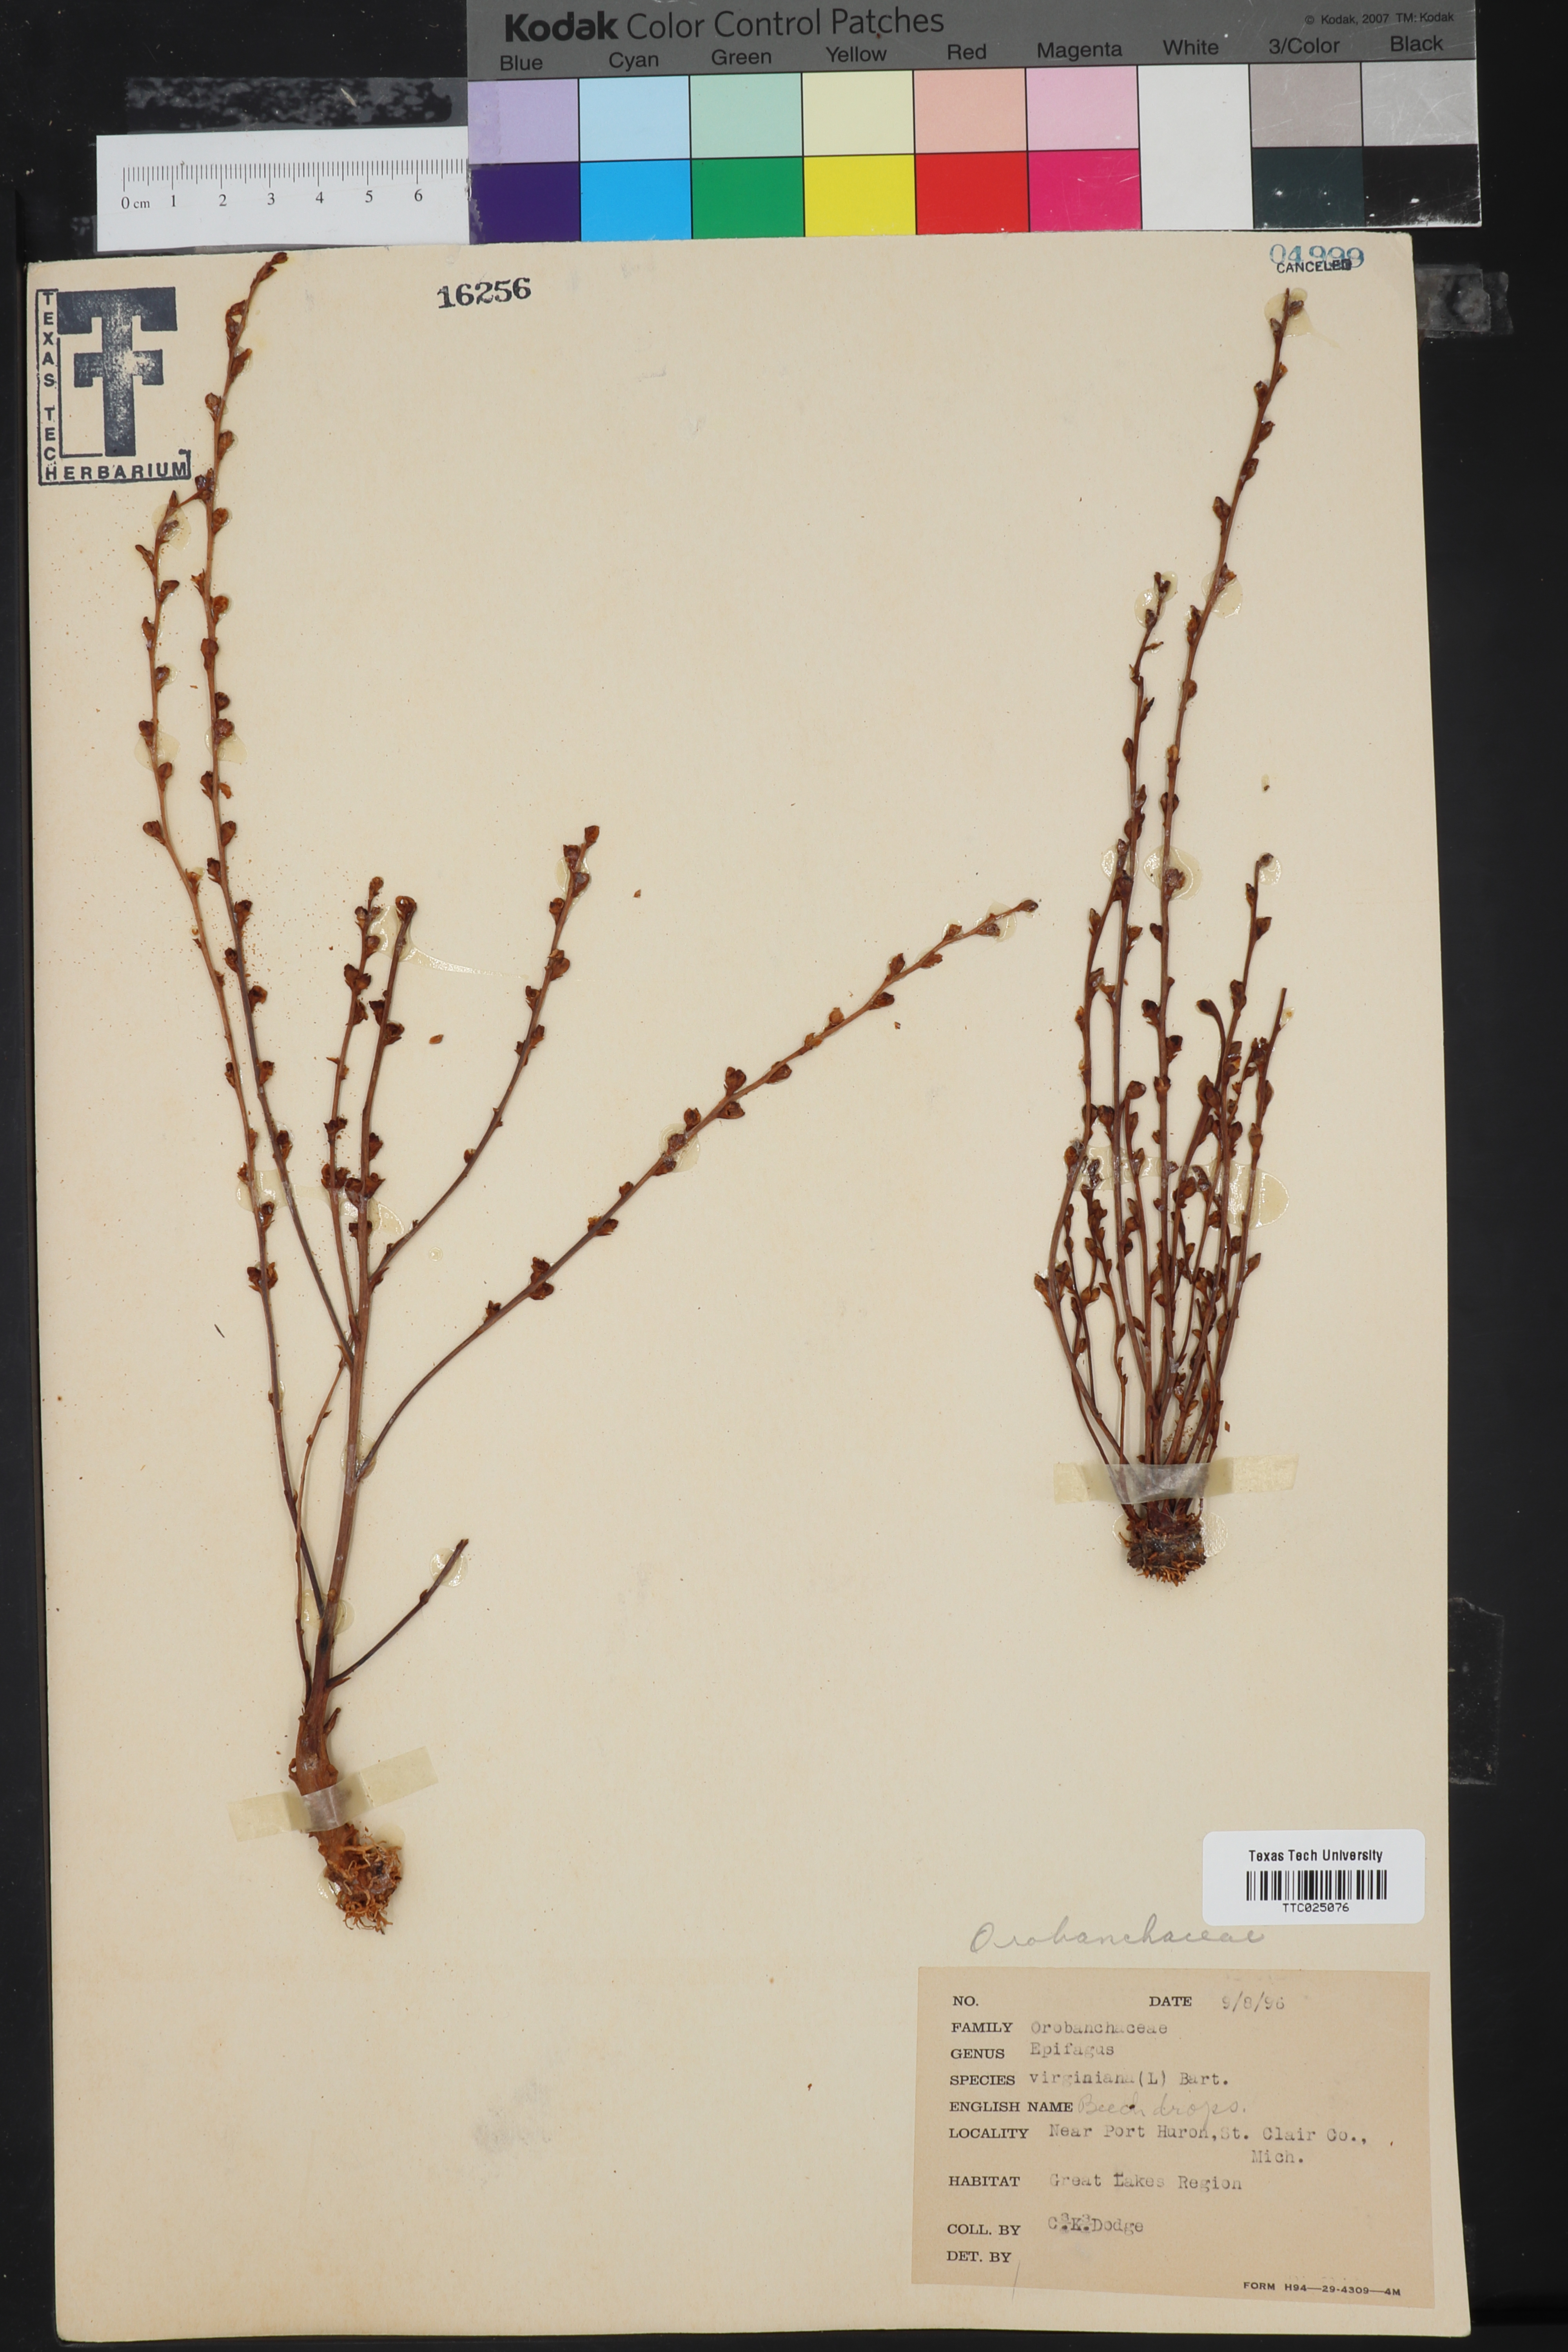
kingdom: Plantae
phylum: Tracheophyta
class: Magnoliopsida
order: Lamiales
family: Orobanchaceae
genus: Epifagus
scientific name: Epifagus virginiana
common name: Beechdrops
